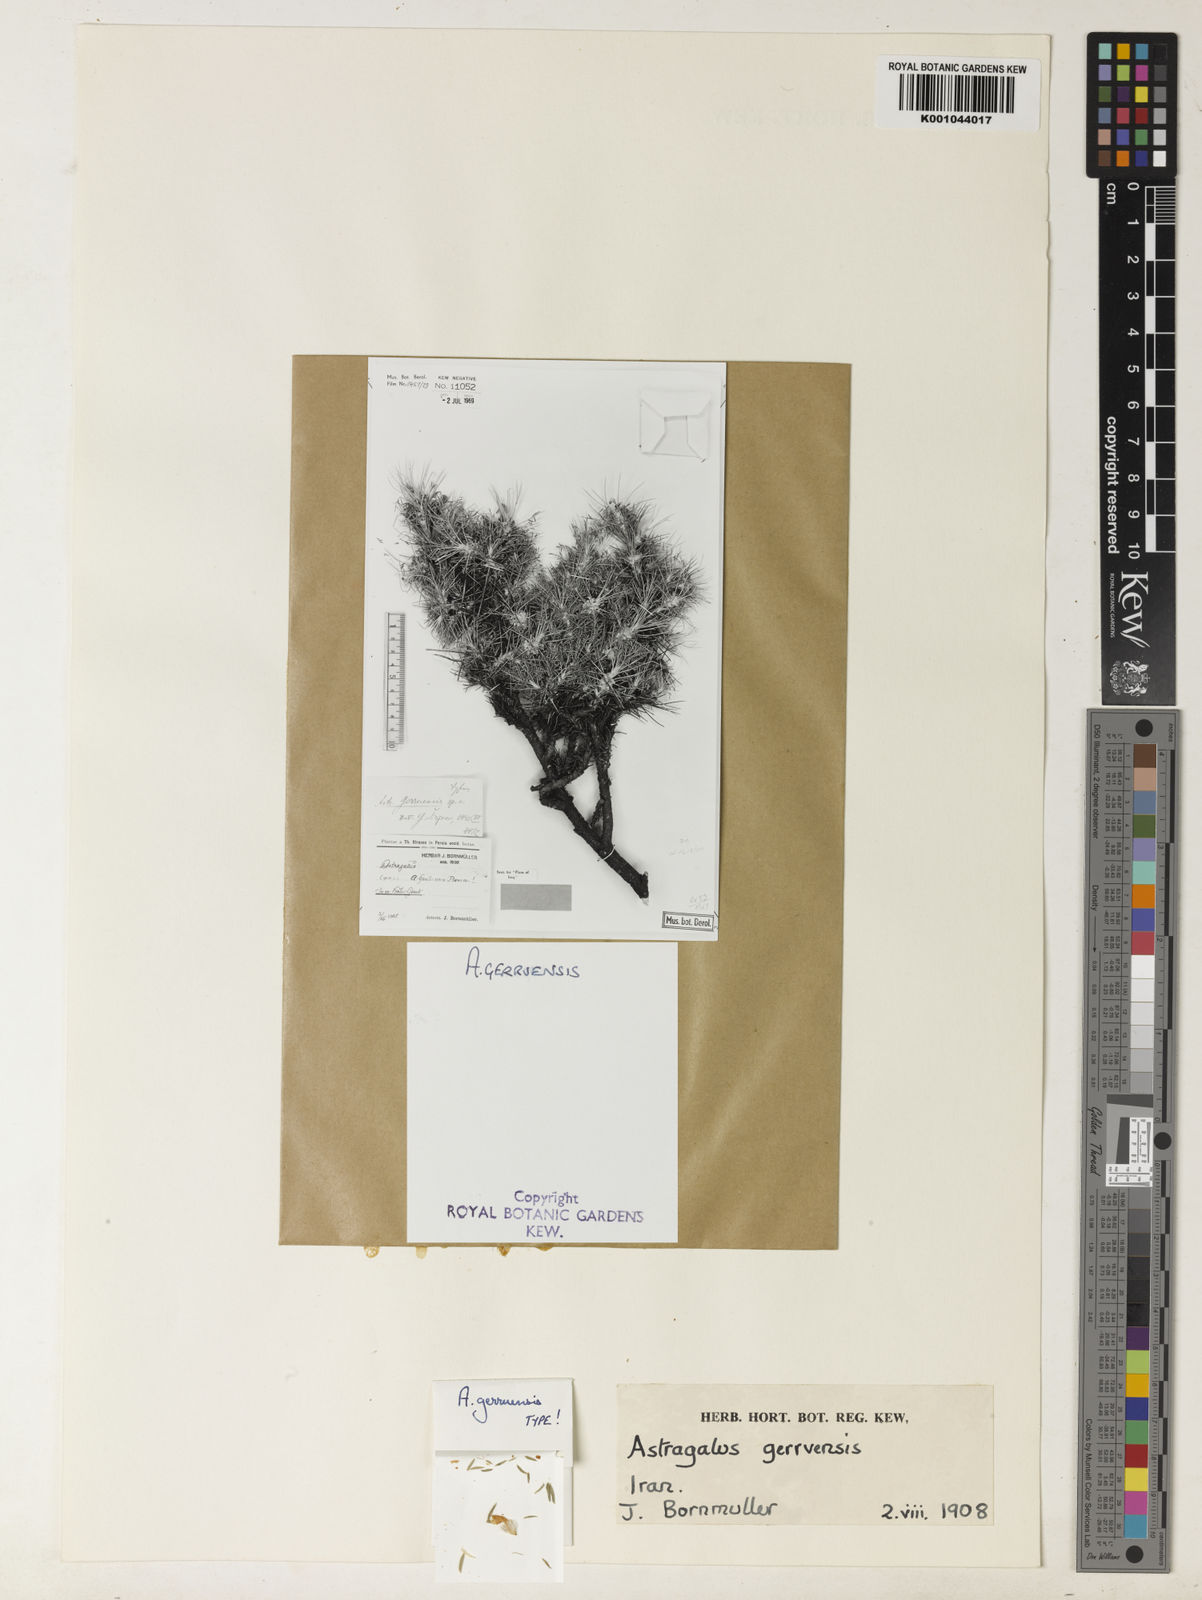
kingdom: Plantae
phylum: Tracheophyta
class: Magnoliopsida
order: Fabales
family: Fabaceae
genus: Astragalus
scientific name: Astragalus
